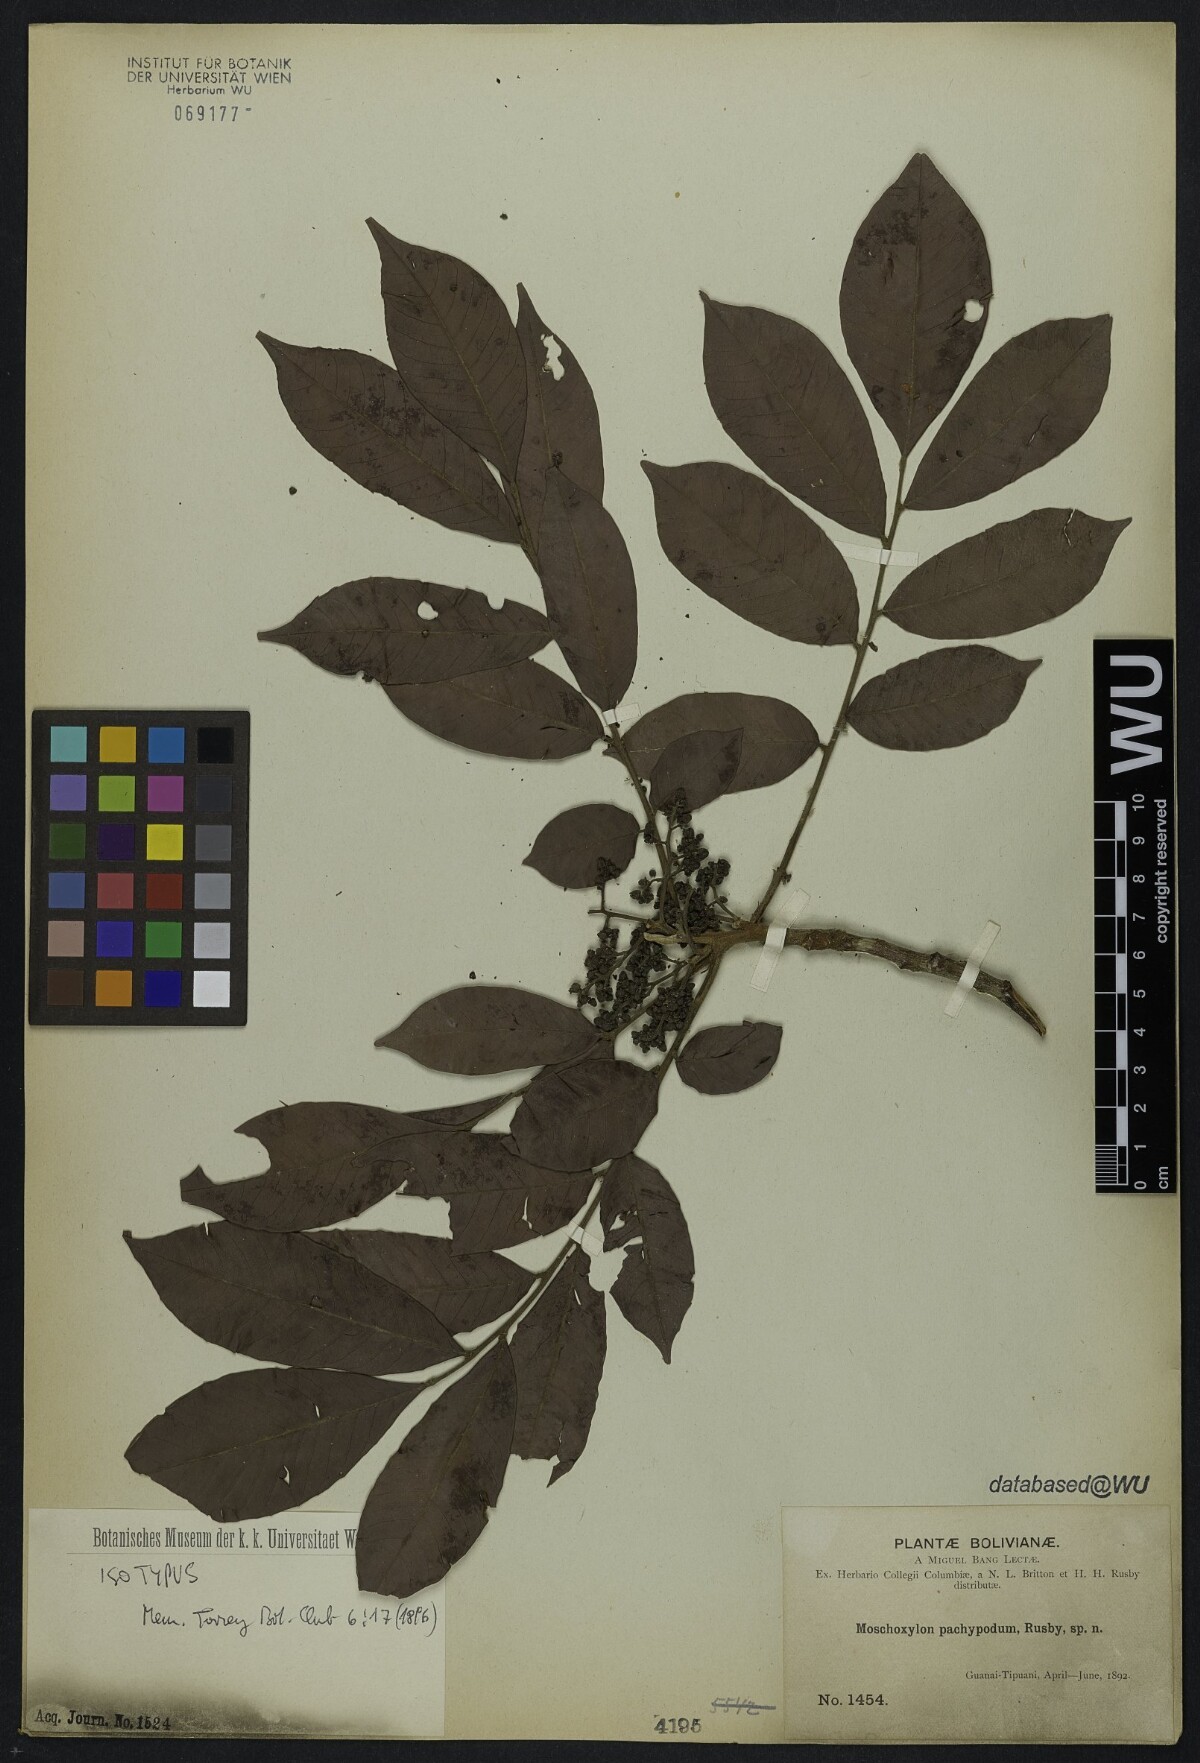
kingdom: Plantae
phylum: Tracheophyta
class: Magnoliopsida
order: Sapindales
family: Meliaceae
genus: Trichilia
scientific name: Trichilia pachypoda
